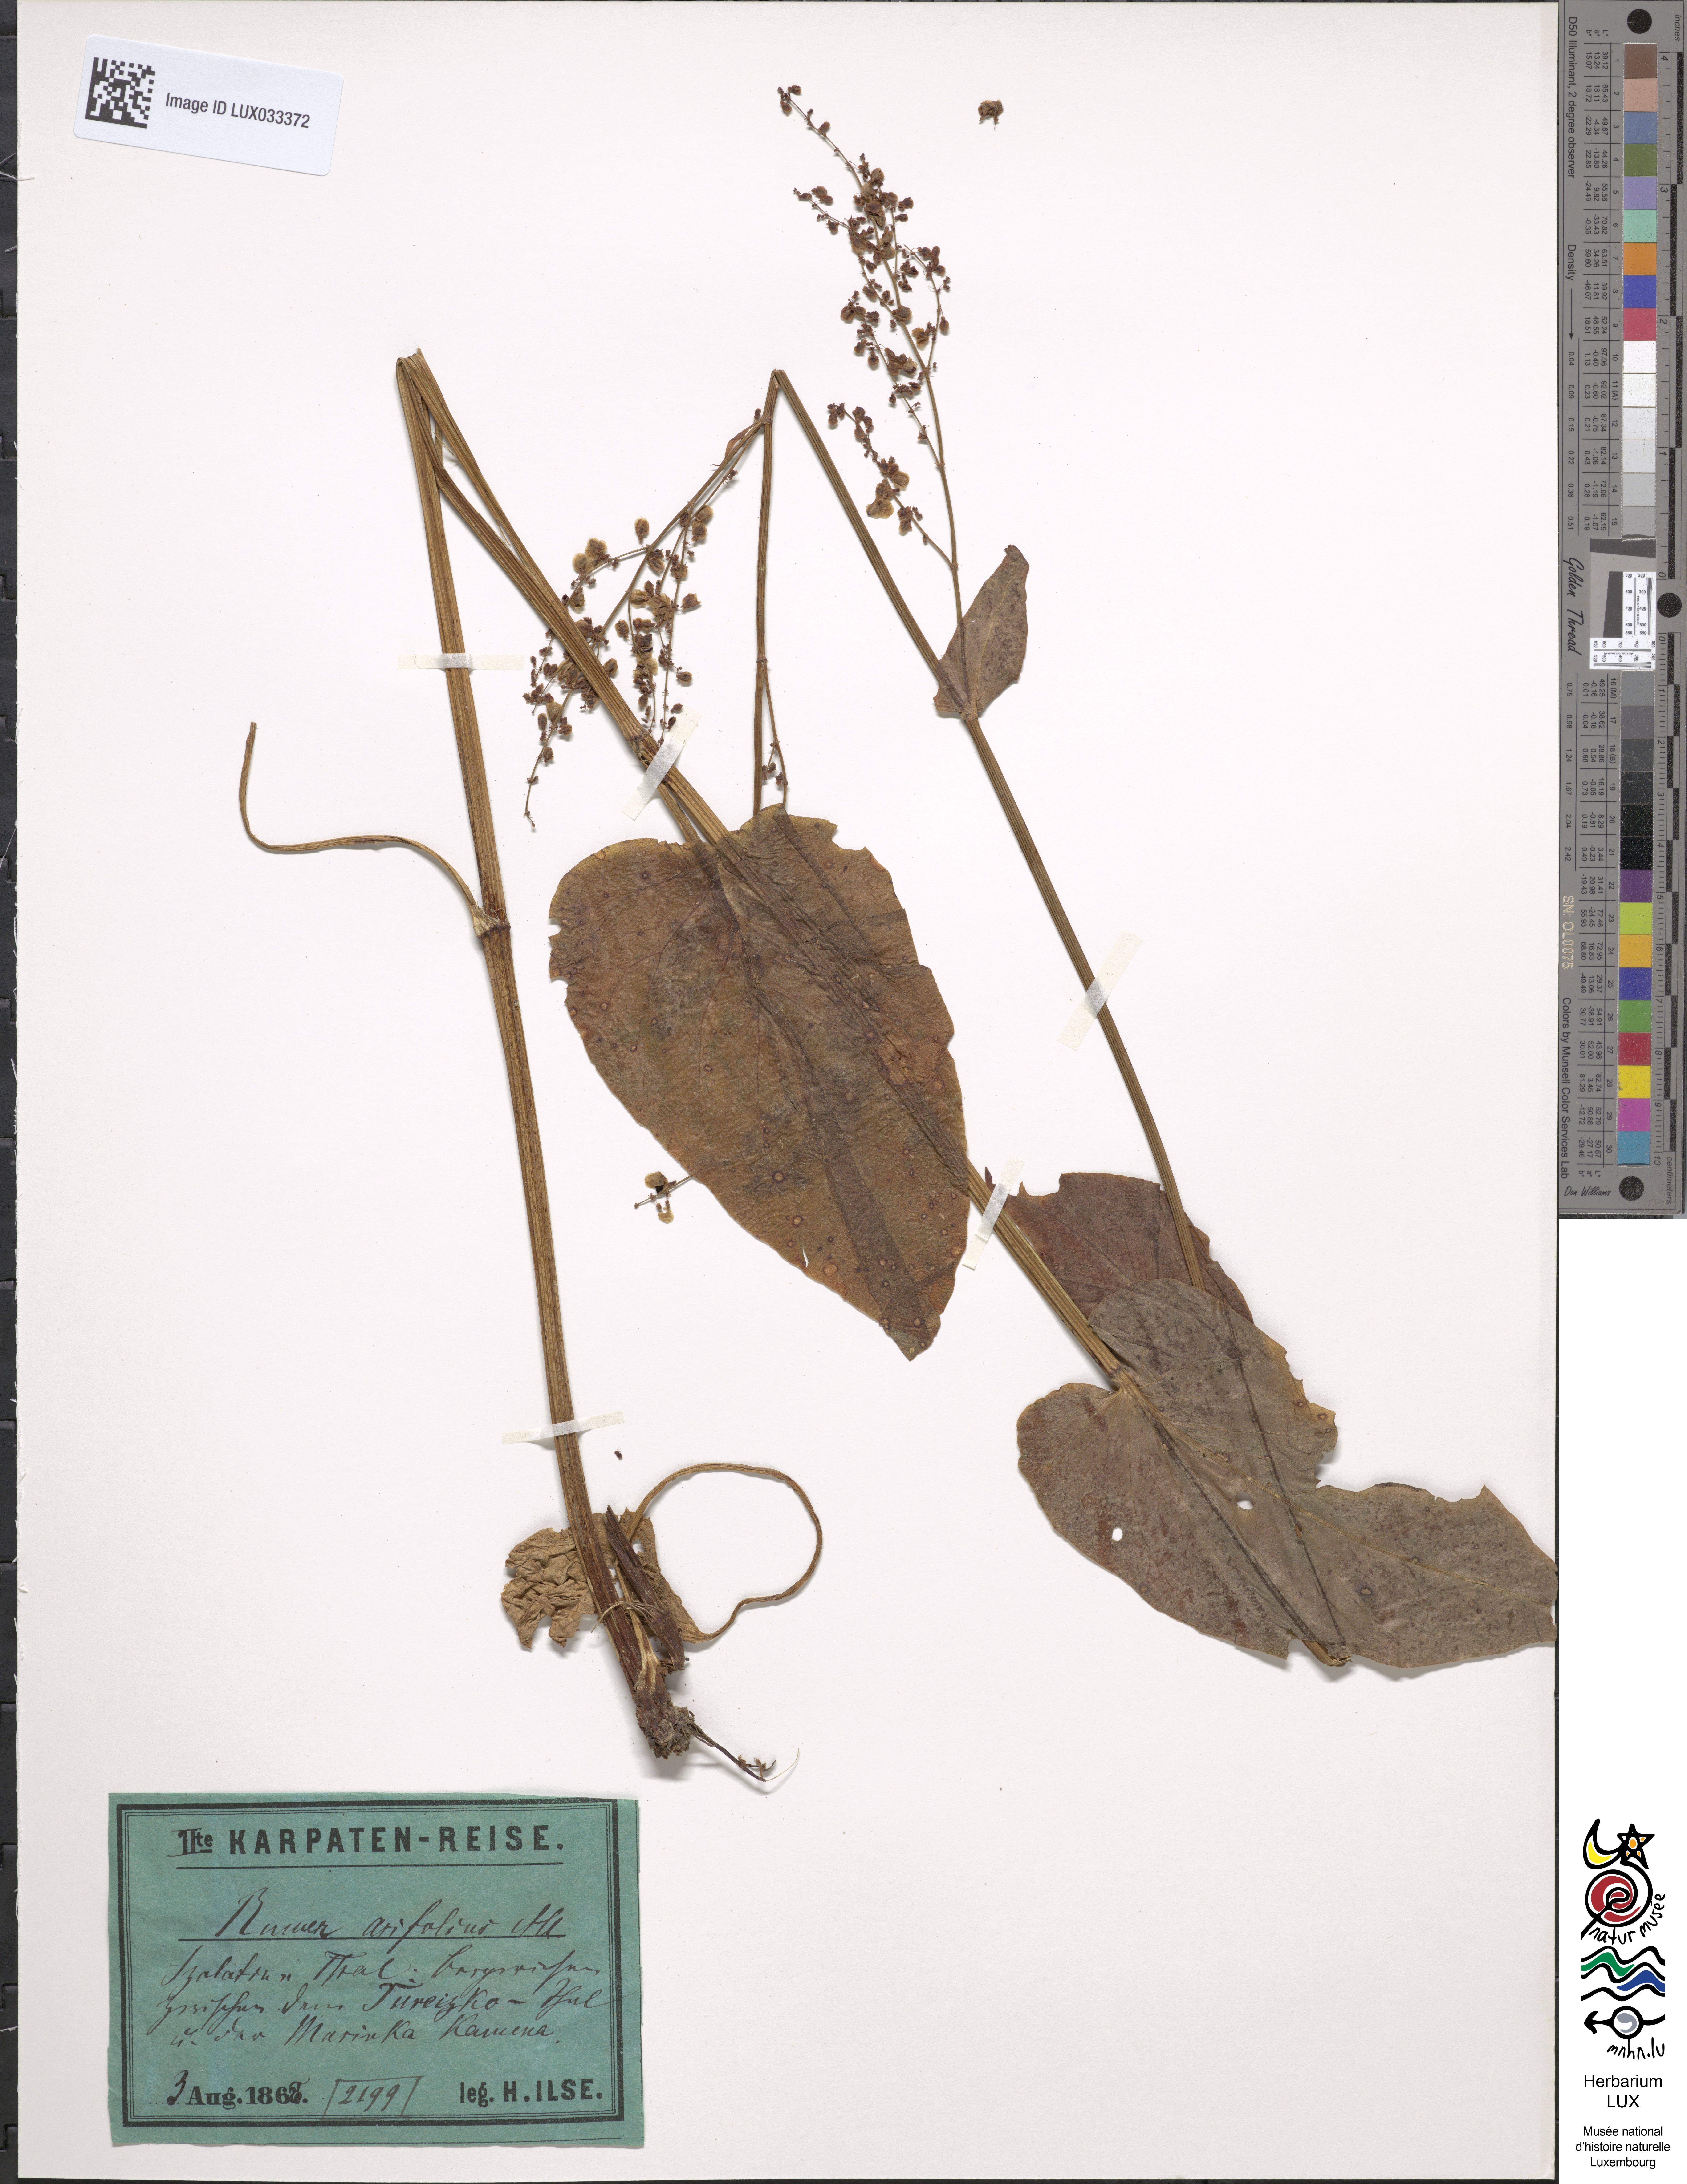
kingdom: Plantae
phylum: Tracheophyta
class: Magnoliopsida
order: Caryophyllales
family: Polygonaceae
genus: Rumex
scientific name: Rumex scutatus
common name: French sorrel
